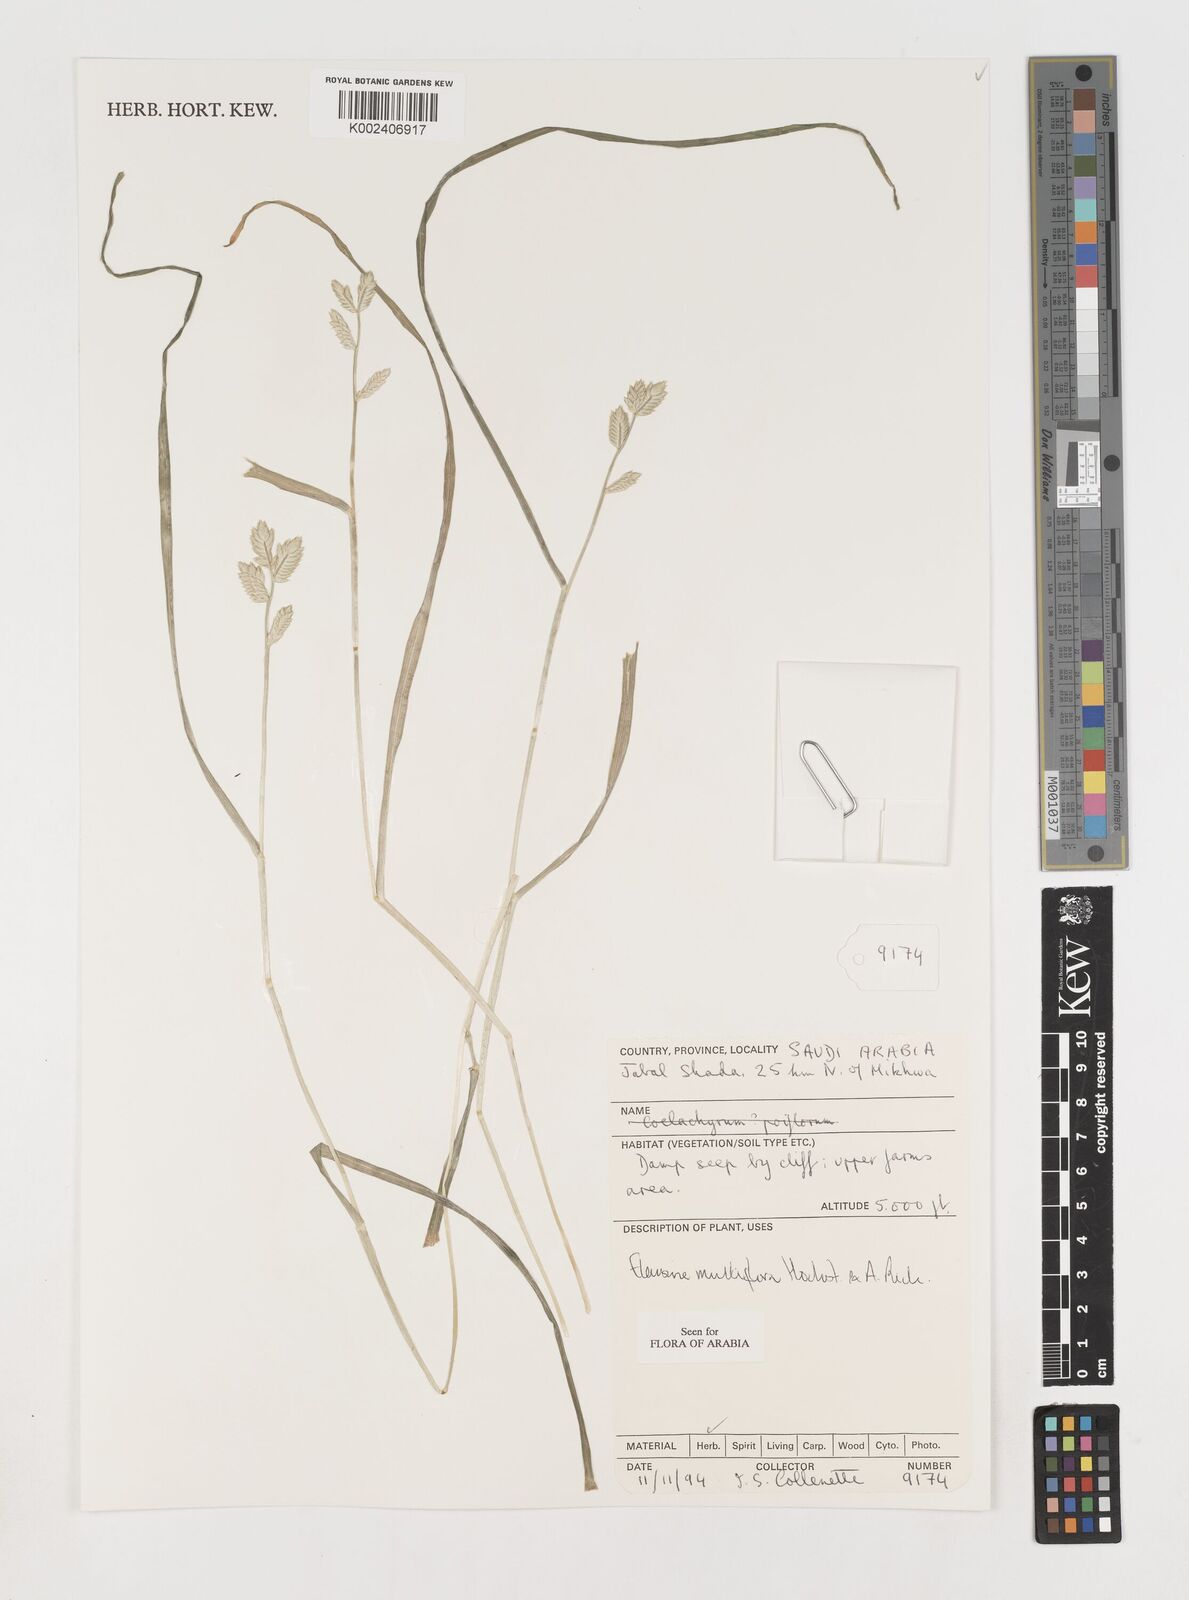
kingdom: Plantae
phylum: Tracheophyta
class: Liliopsida
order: Poales
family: Poaceae
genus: Eleusine
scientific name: Eleusine multiflora
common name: Fat-spiked yard-grass
